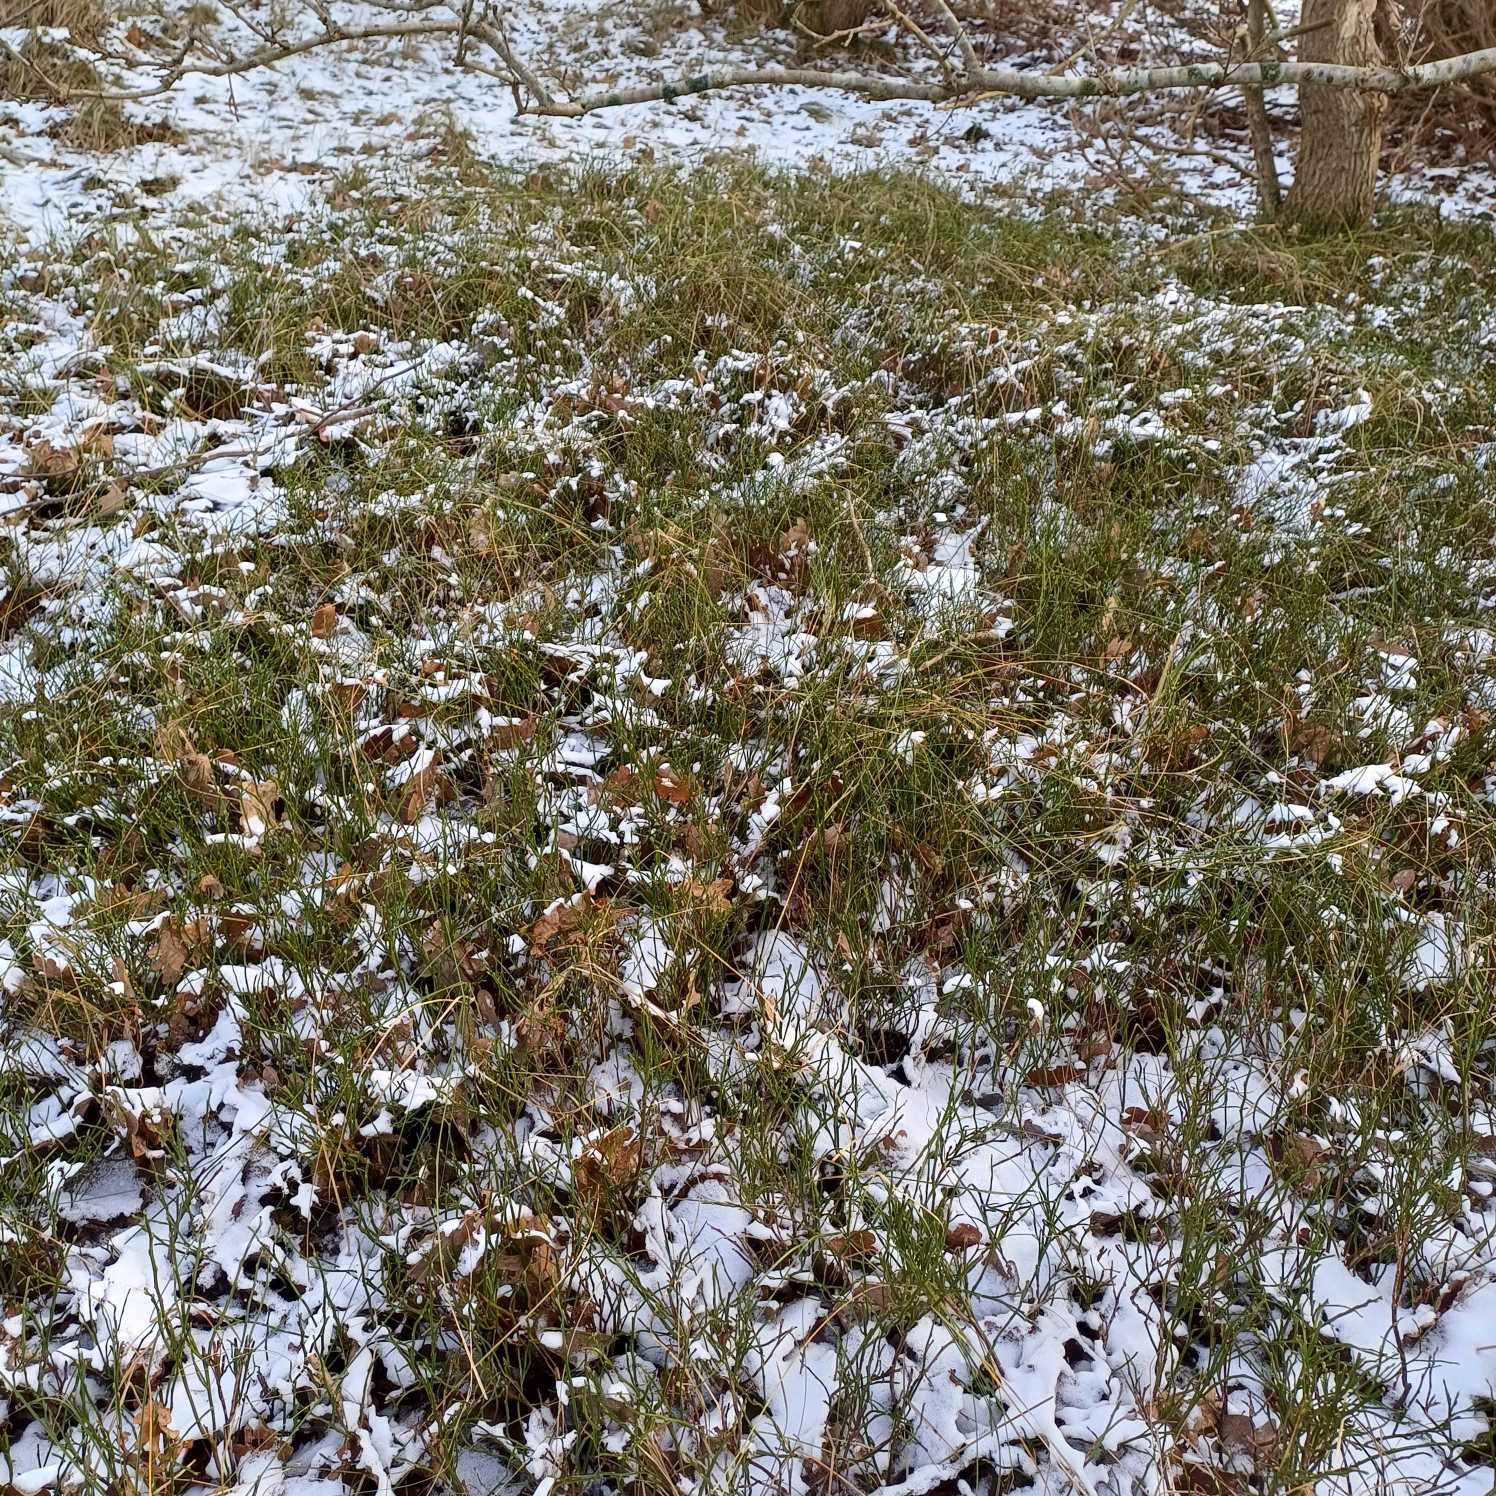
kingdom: Plantae
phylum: Tracheophyta
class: Magnoliopsida
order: Ericales
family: Ericaceae
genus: Vaccinium
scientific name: Vaccinium myrtillus
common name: Blåbær
